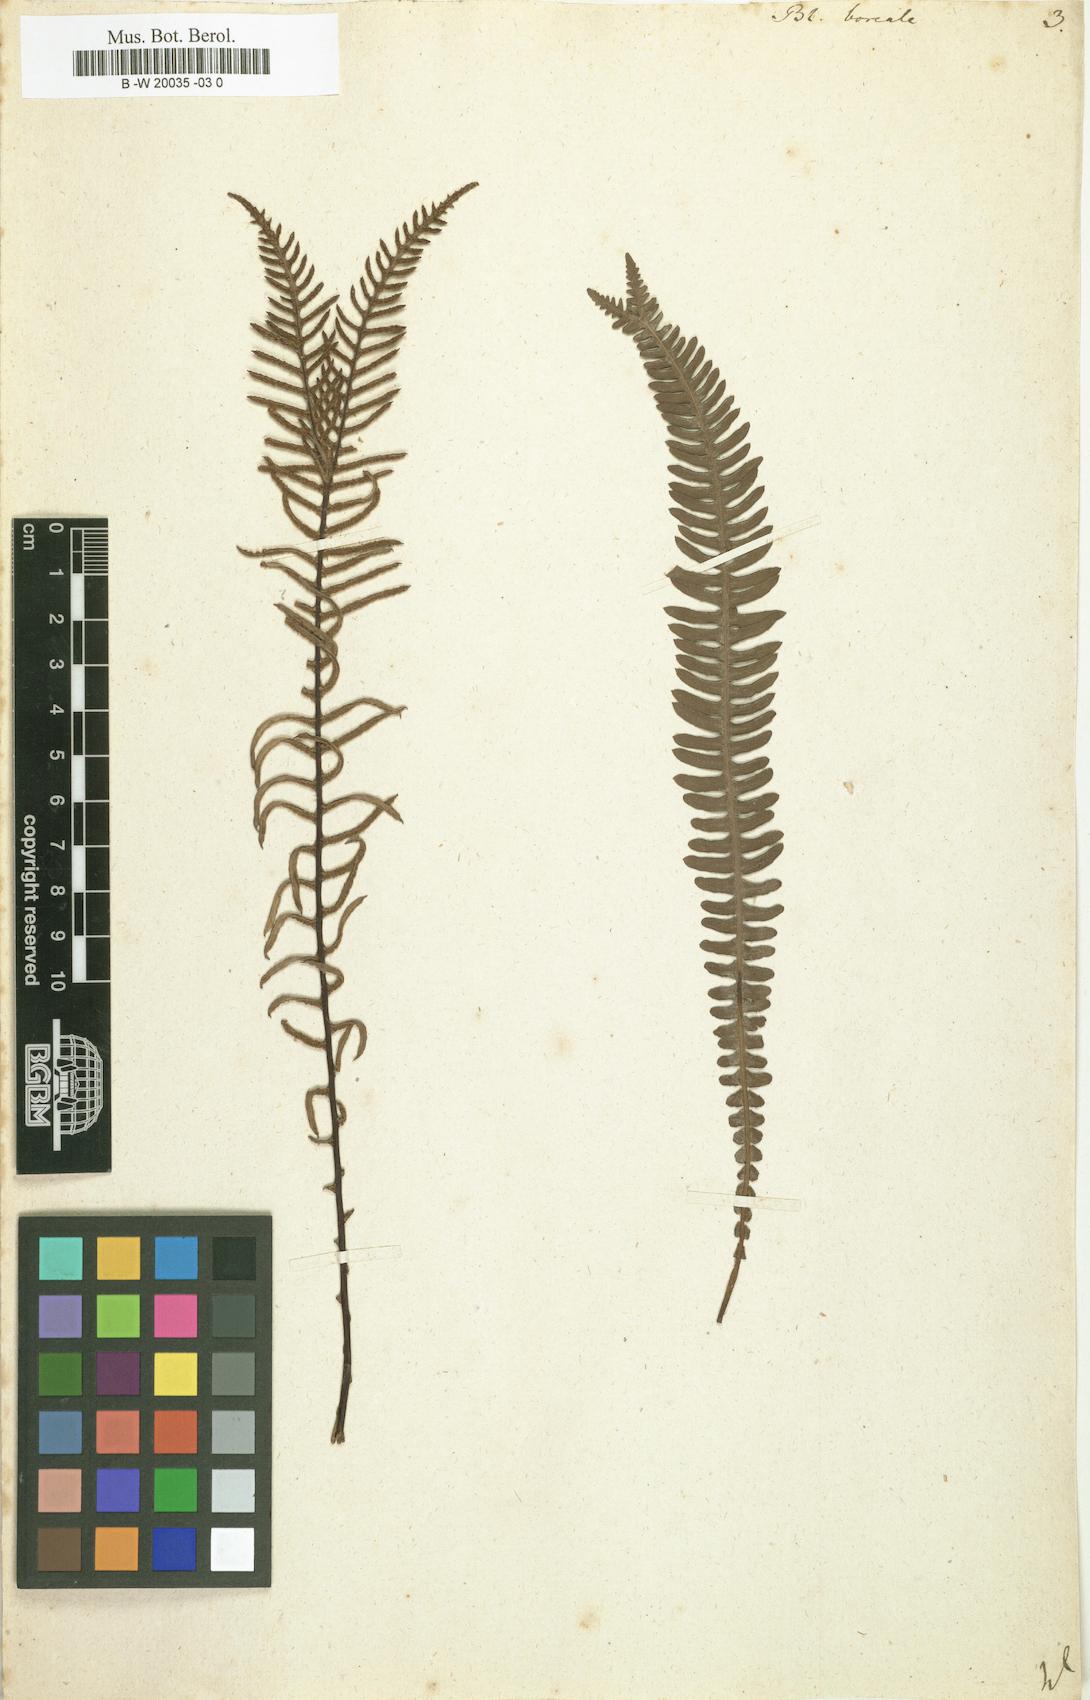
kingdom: Plantae
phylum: Tracheophyta
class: Polypodiopsida
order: Polypodiales
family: Blechnaceae
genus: Struthiopteris
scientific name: Struthiopteris spicant
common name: Deer fern
